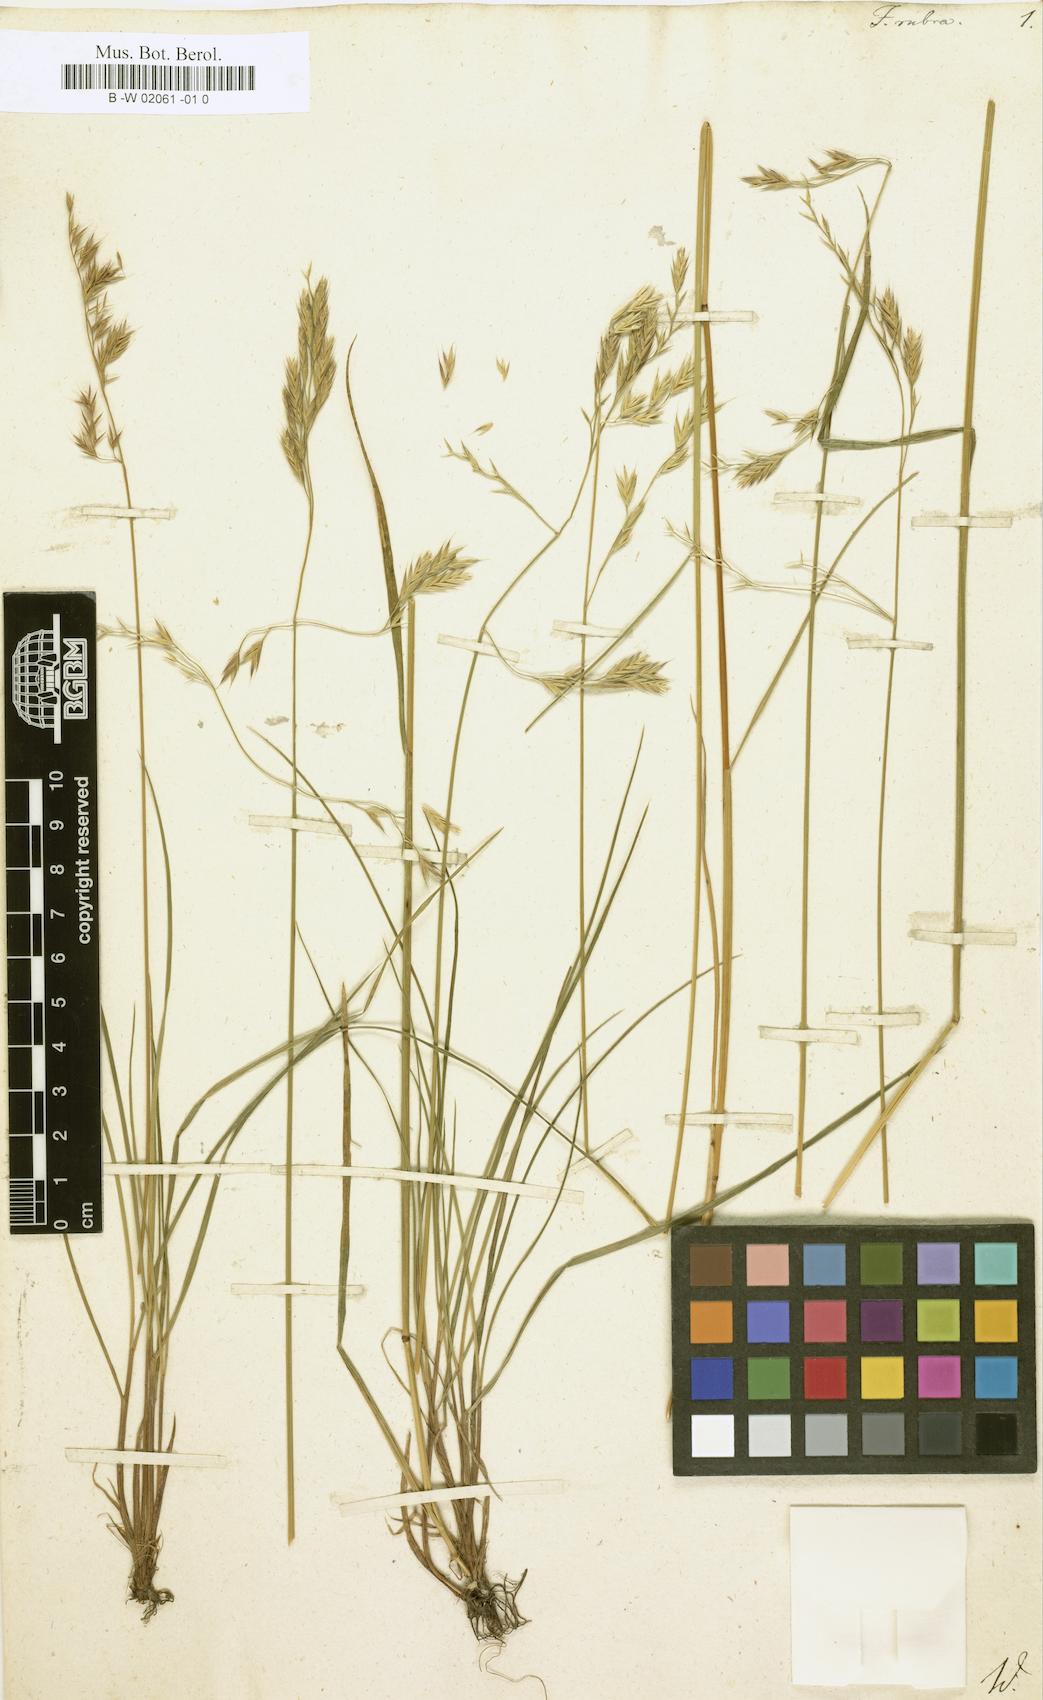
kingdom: Plantae
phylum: Tracheophyta
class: Liliopsida
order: Poales
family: Poaceae
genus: Festuca
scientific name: Festuca rubra
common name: Red fescue
